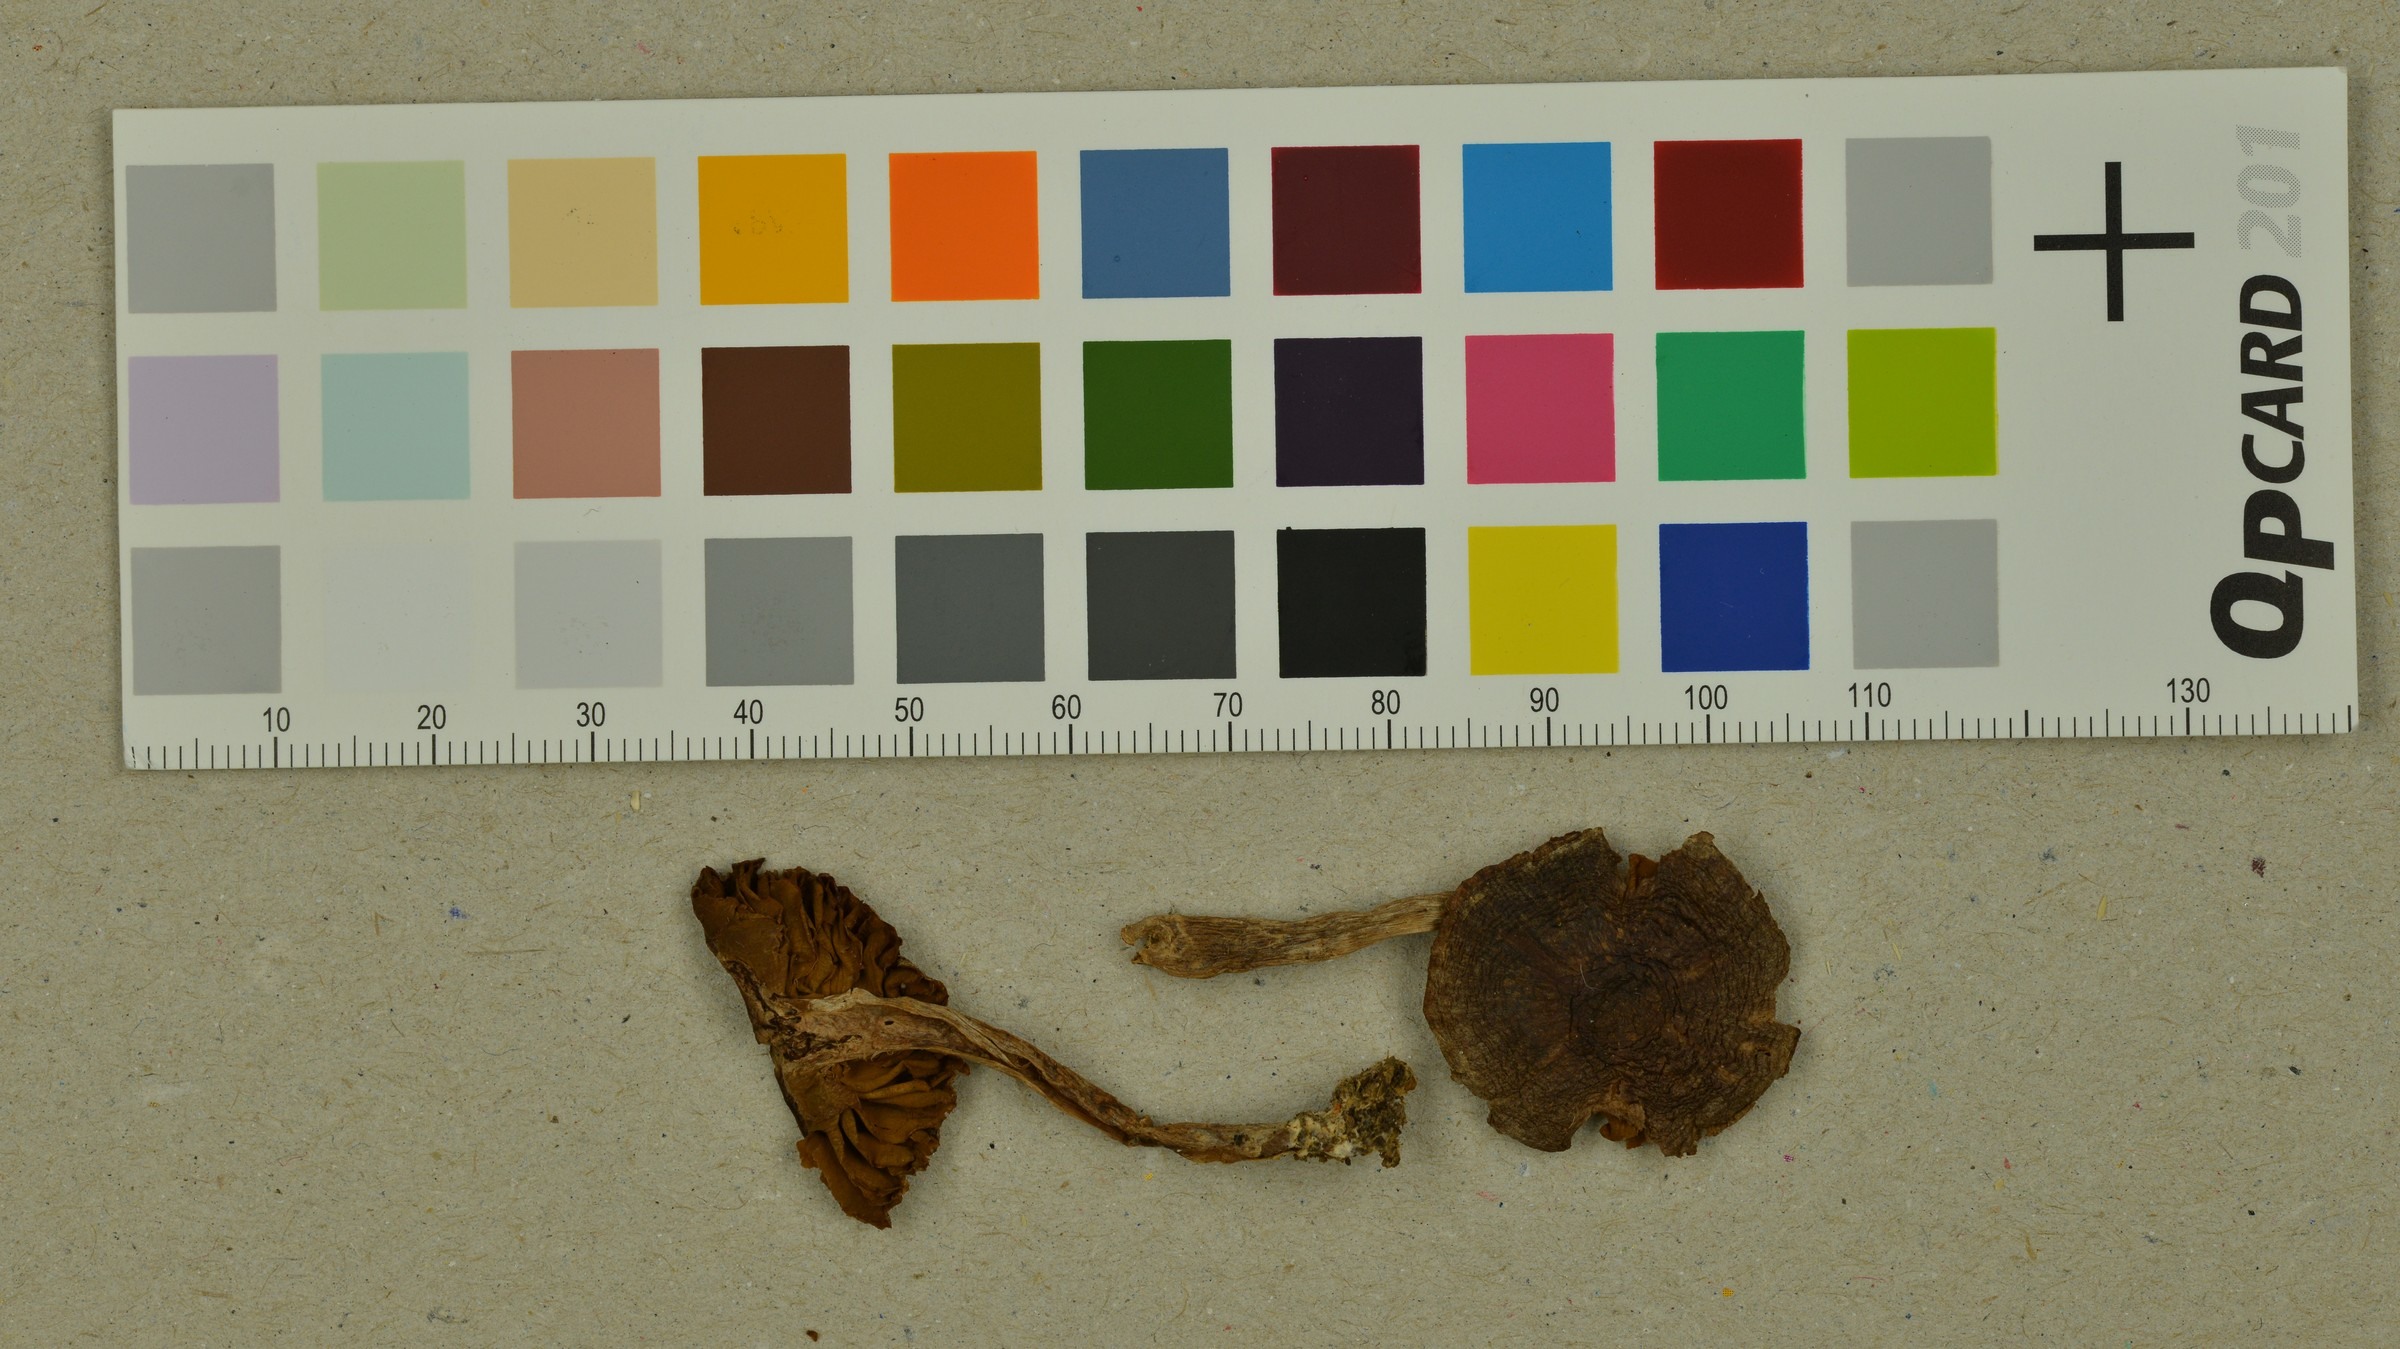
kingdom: Fungi
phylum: Basidiomycota
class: Agaricomycetes
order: Agaricales
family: Cortinariaceae
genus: Cortinarius
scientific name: Cortinarius casimirii
